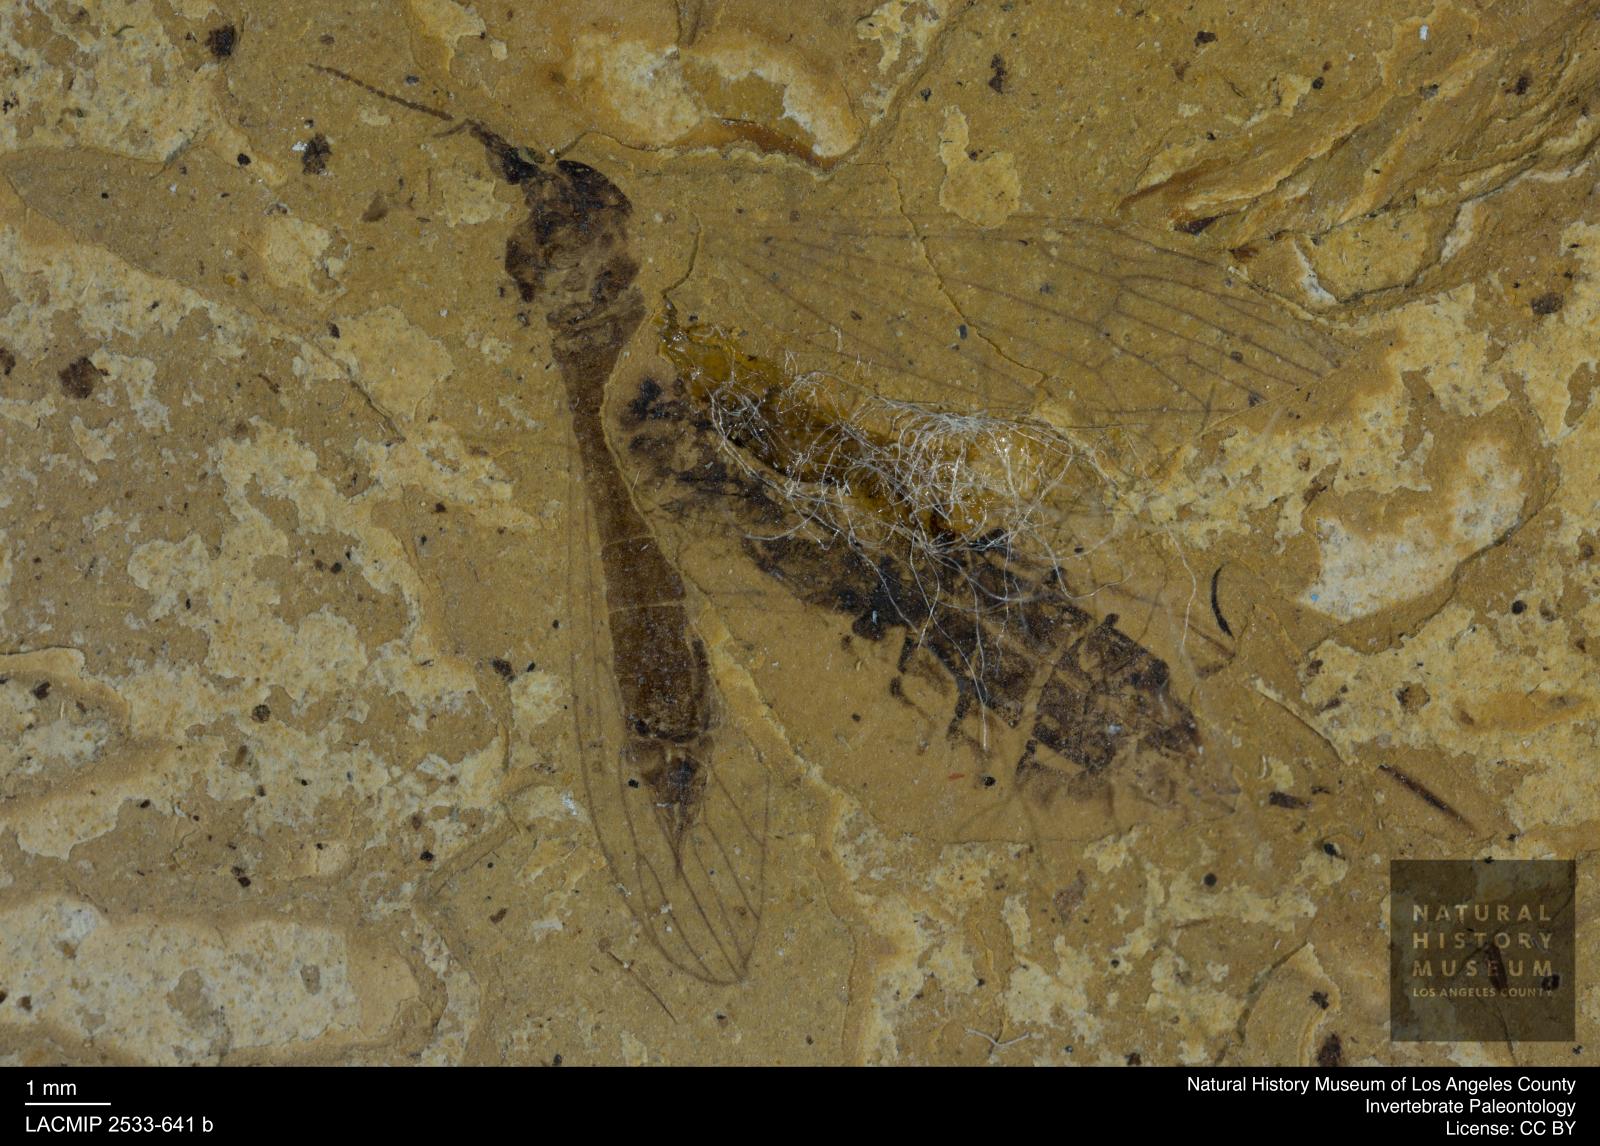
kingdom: Animalia
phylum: Arthropoda
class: Insecta
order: Diptera
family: Limoniidae
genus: Gonomyia
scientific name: Gonomyia munda
